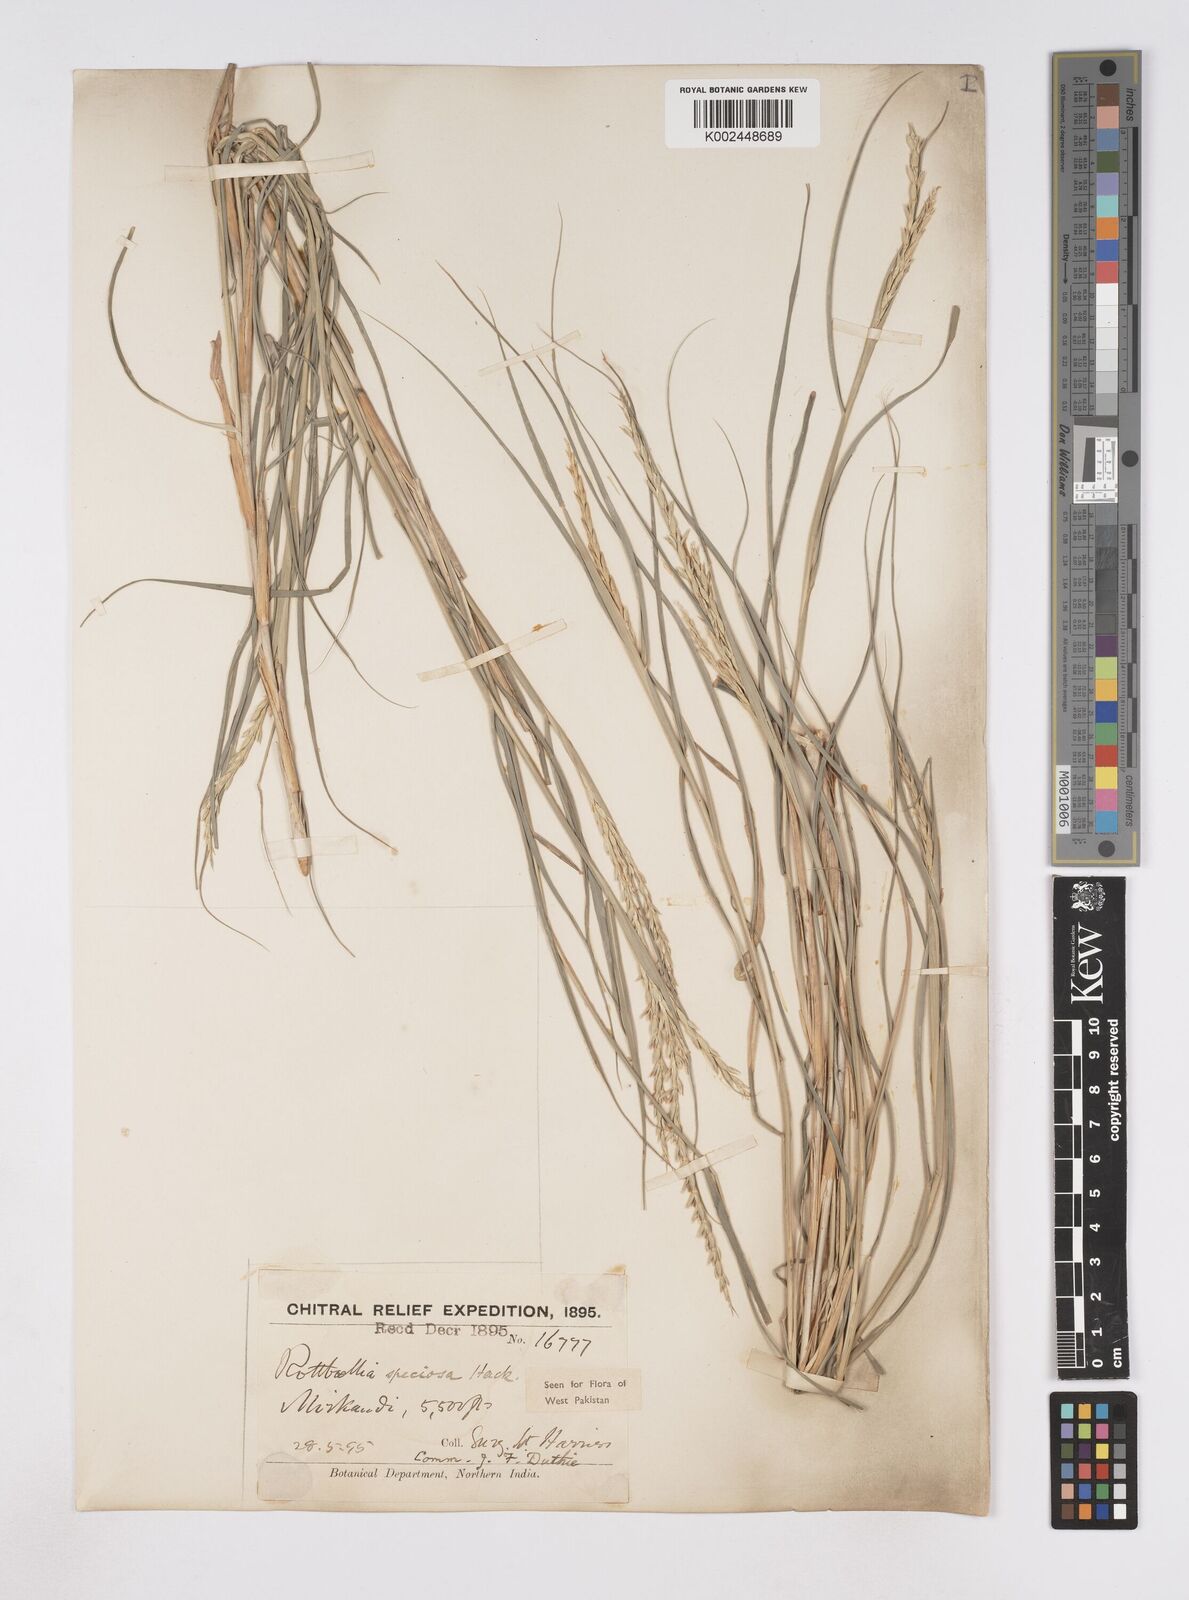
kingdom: Plantae
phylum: Tracheophyta
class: Liliopsida
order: Poales
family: Poaceae
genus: Phacelurus
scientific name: Phacelurus speciosus
